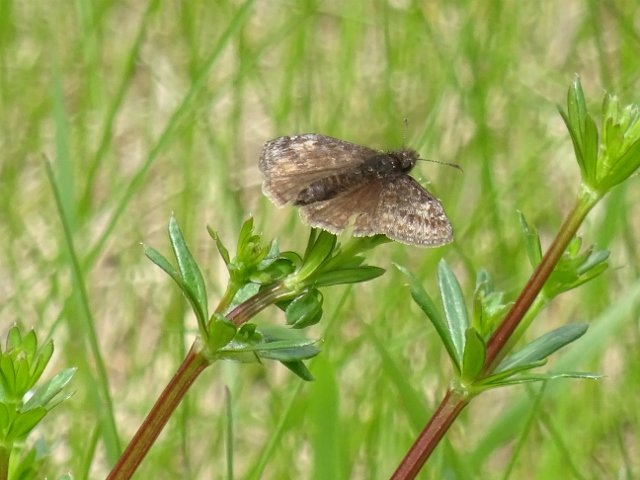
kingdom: Animalia
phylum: Arthropoda
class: Insecta
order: Lepidoptera
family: Hesperiidae
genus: Gesta
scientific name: Gesta
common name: Wild Indigo Duskywing
